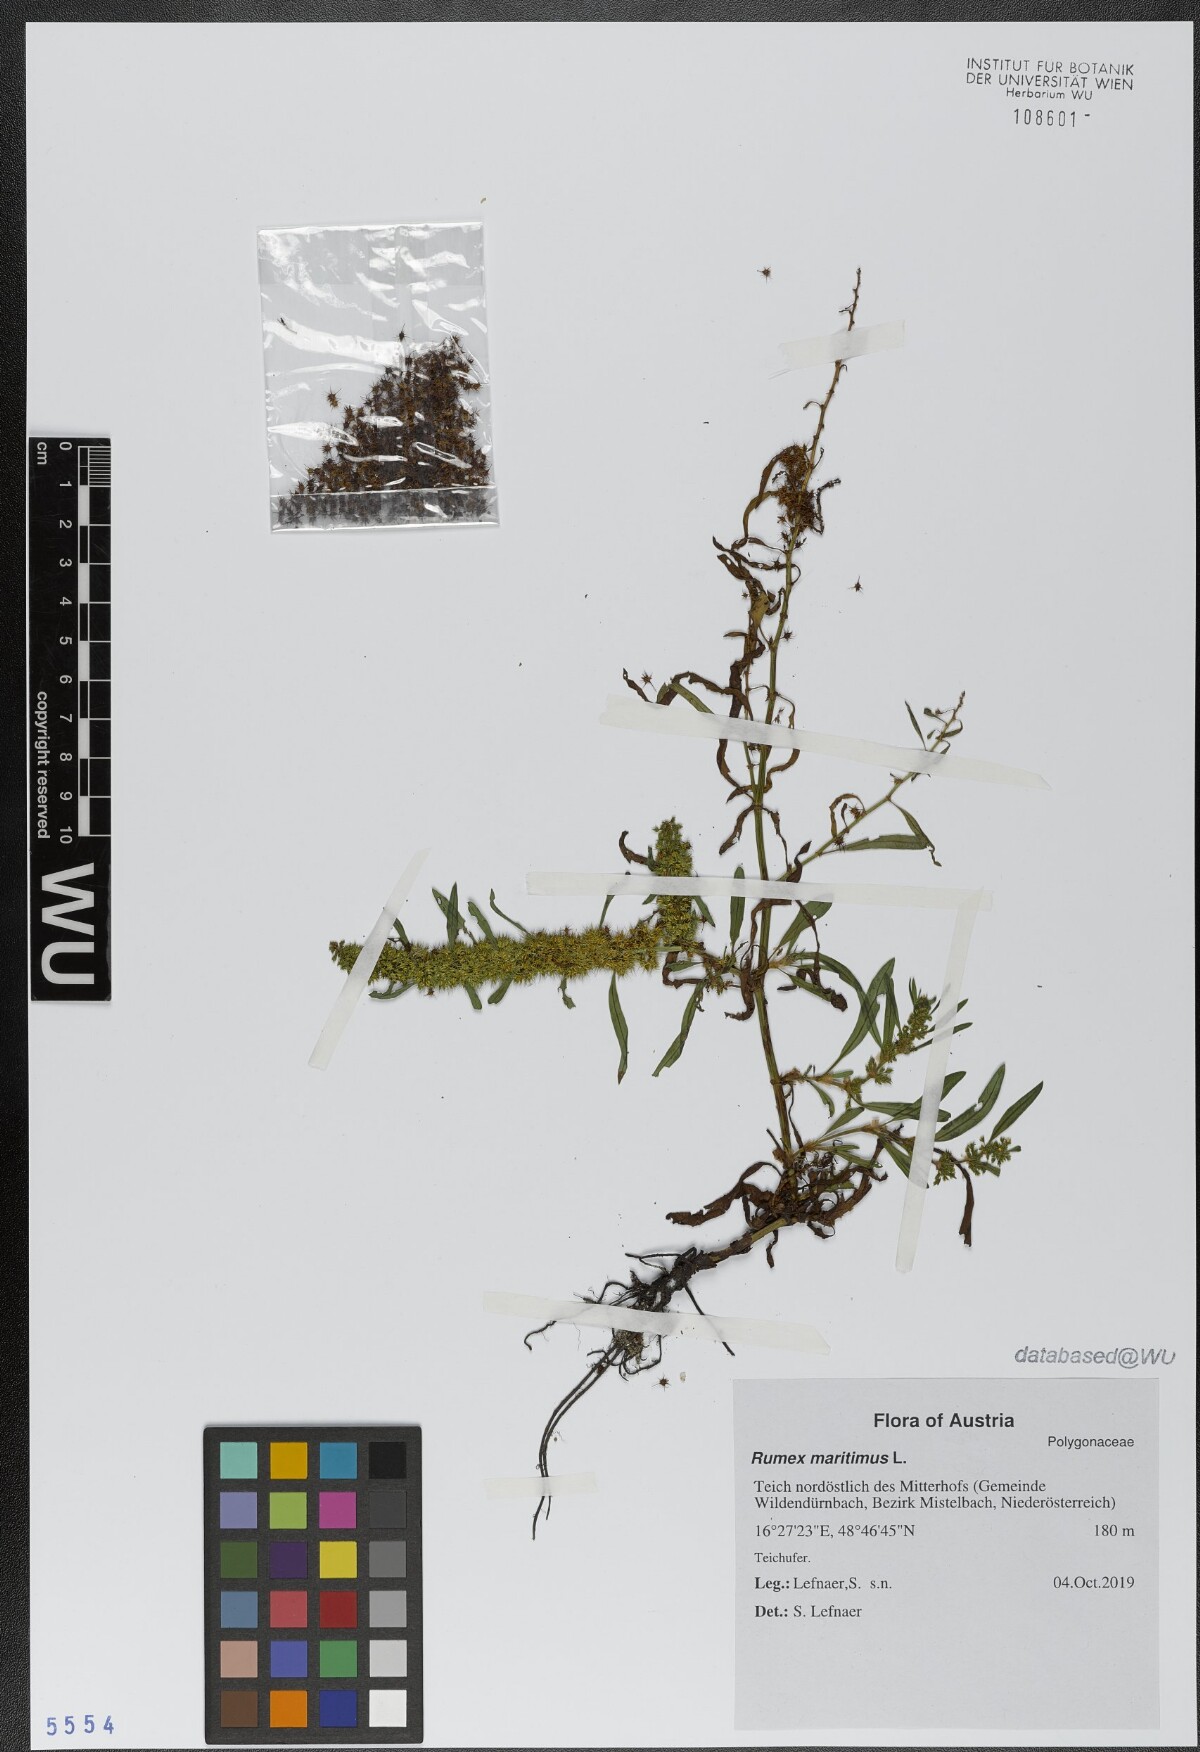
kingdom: Plantae
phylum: Tracheophyta
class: Magnoliopsida
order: Caryophyllales
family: Polygonaceae
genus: Rumex
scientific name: Rumex maritimus
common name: Golden dock
